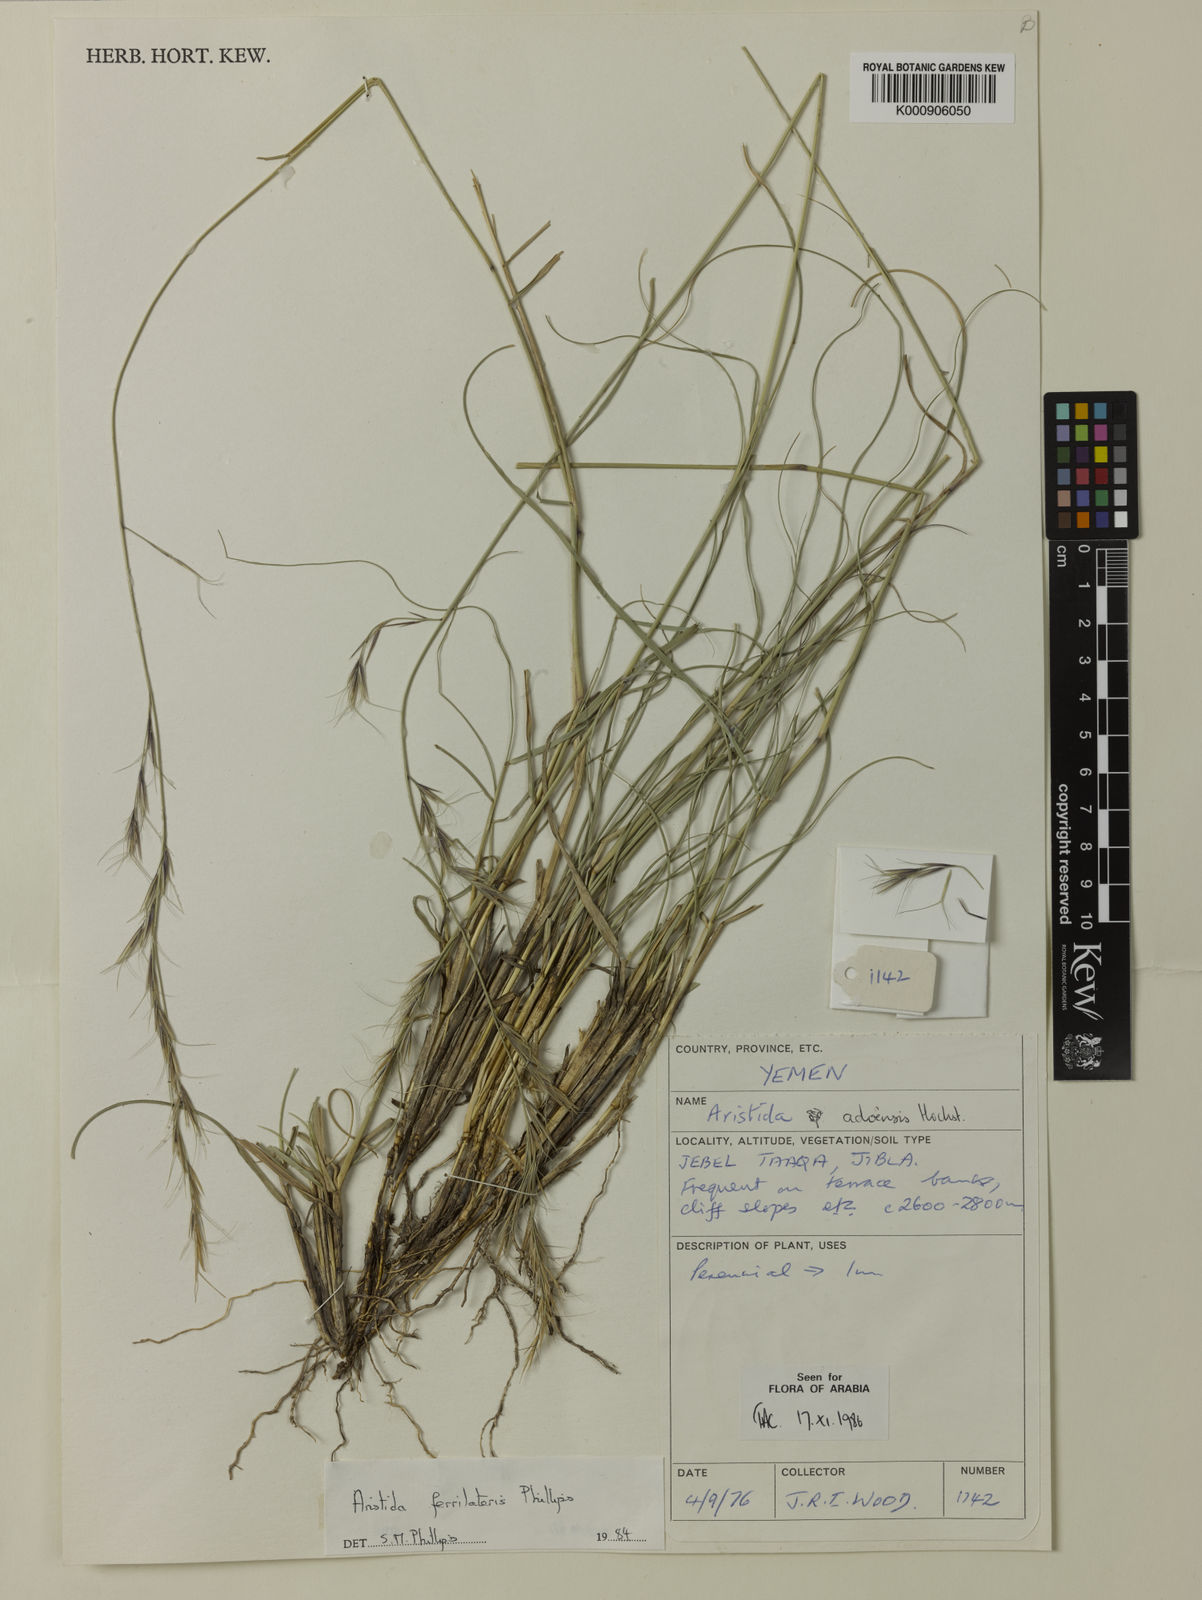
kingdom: Plantae
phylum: Tracheophyta
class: Liliopsida
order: Poales
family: Poaceae
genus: Aristida
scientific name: Aristida ferrilateris
